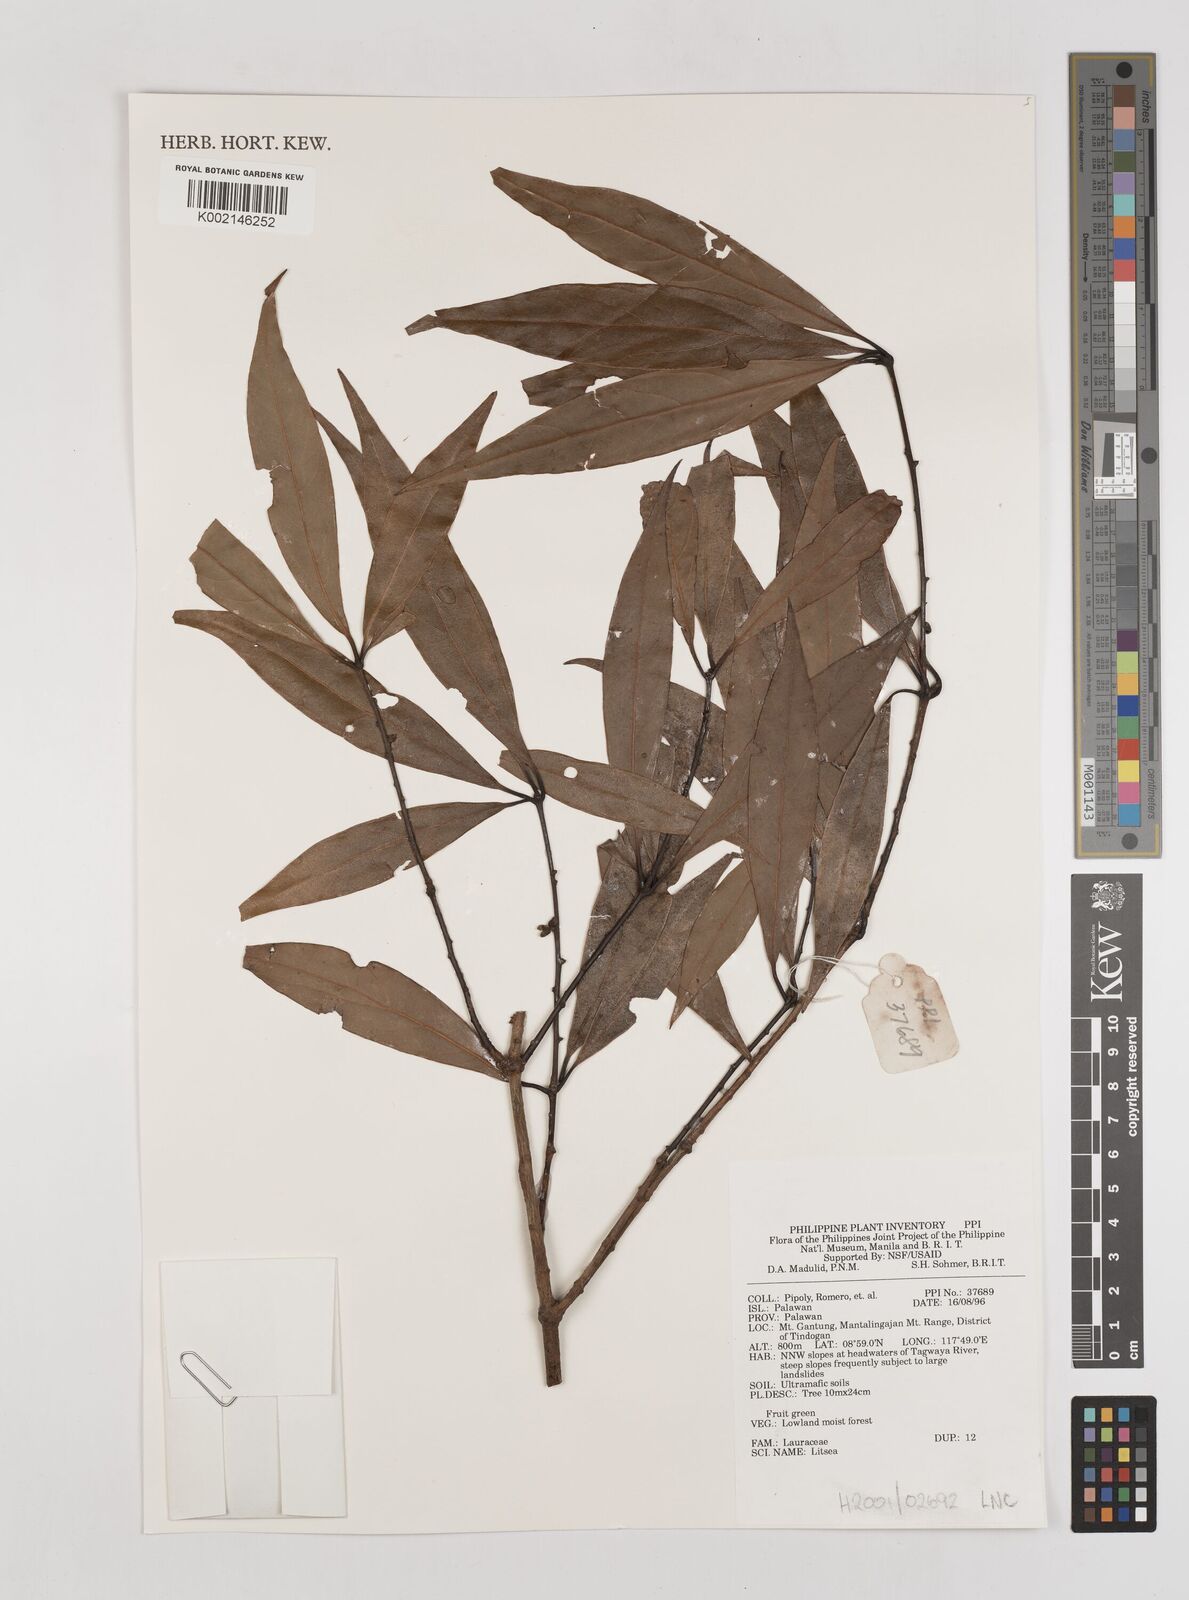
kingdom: Plantae
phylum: Tracheophyta
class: Magnoliopsida
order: Laurales
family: Lauraceae
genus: Litsea
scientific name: Litsea
